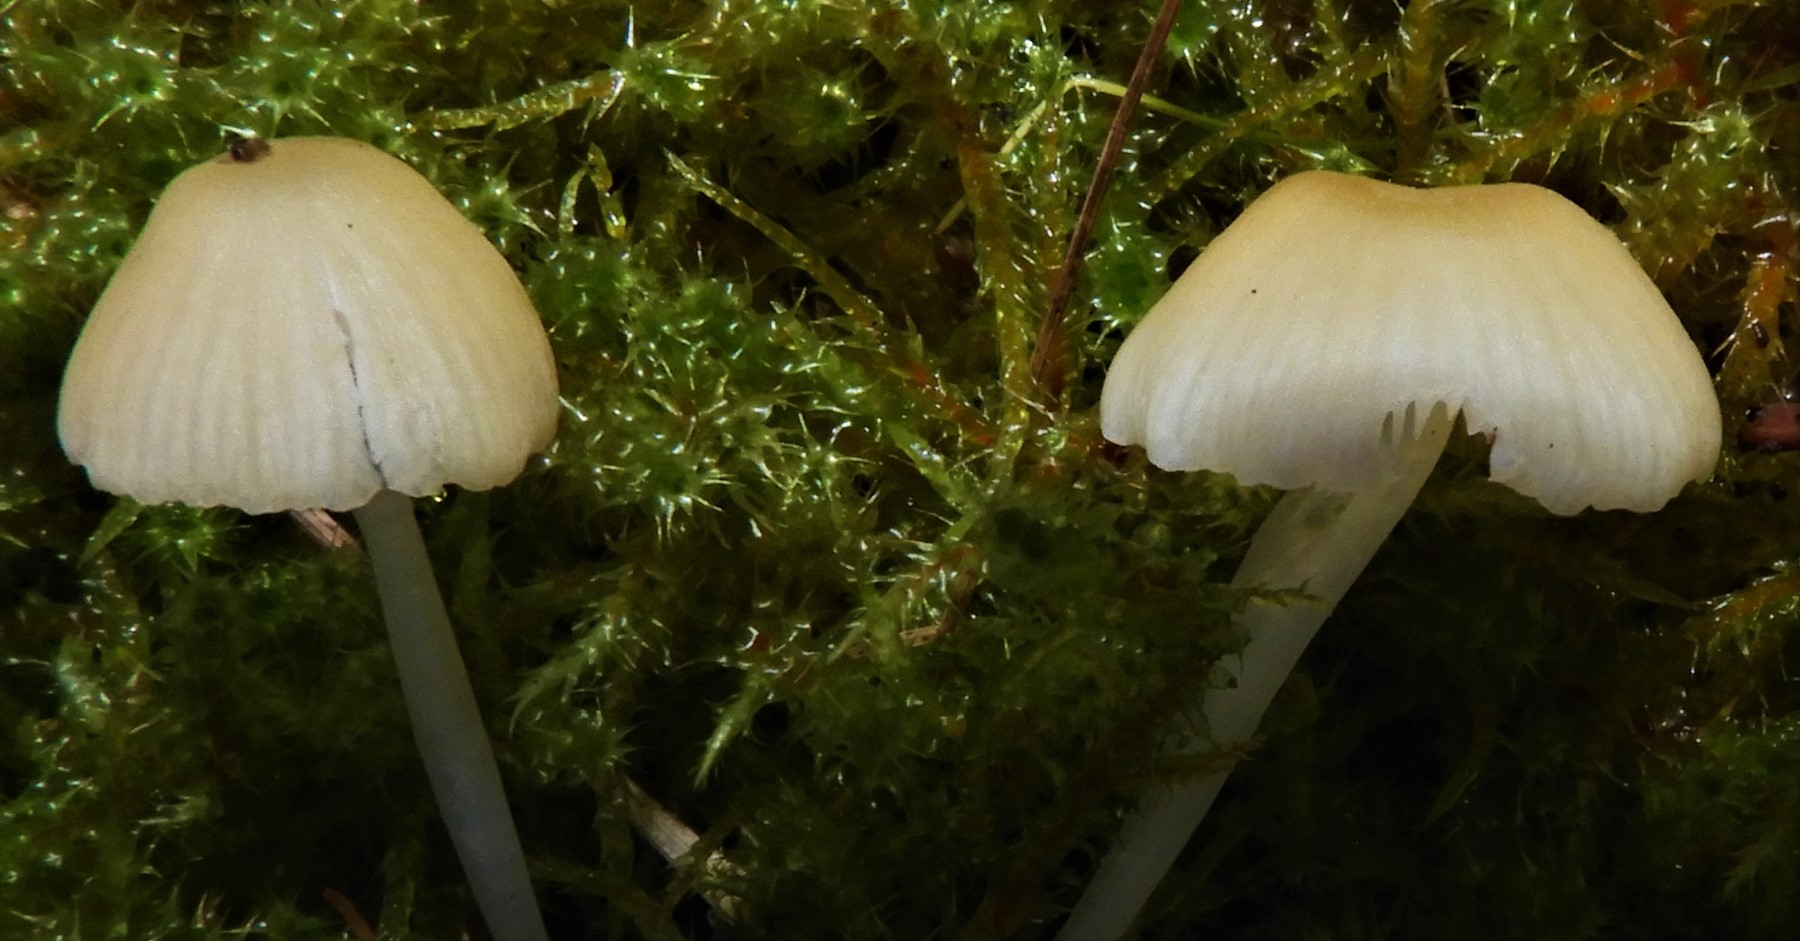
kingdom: Fungi
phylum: Basidiomycota
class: Agaricomycetes
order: Agaricales
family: Mycenaceae
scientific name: Mycenaceae
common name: huesvampfamilien
